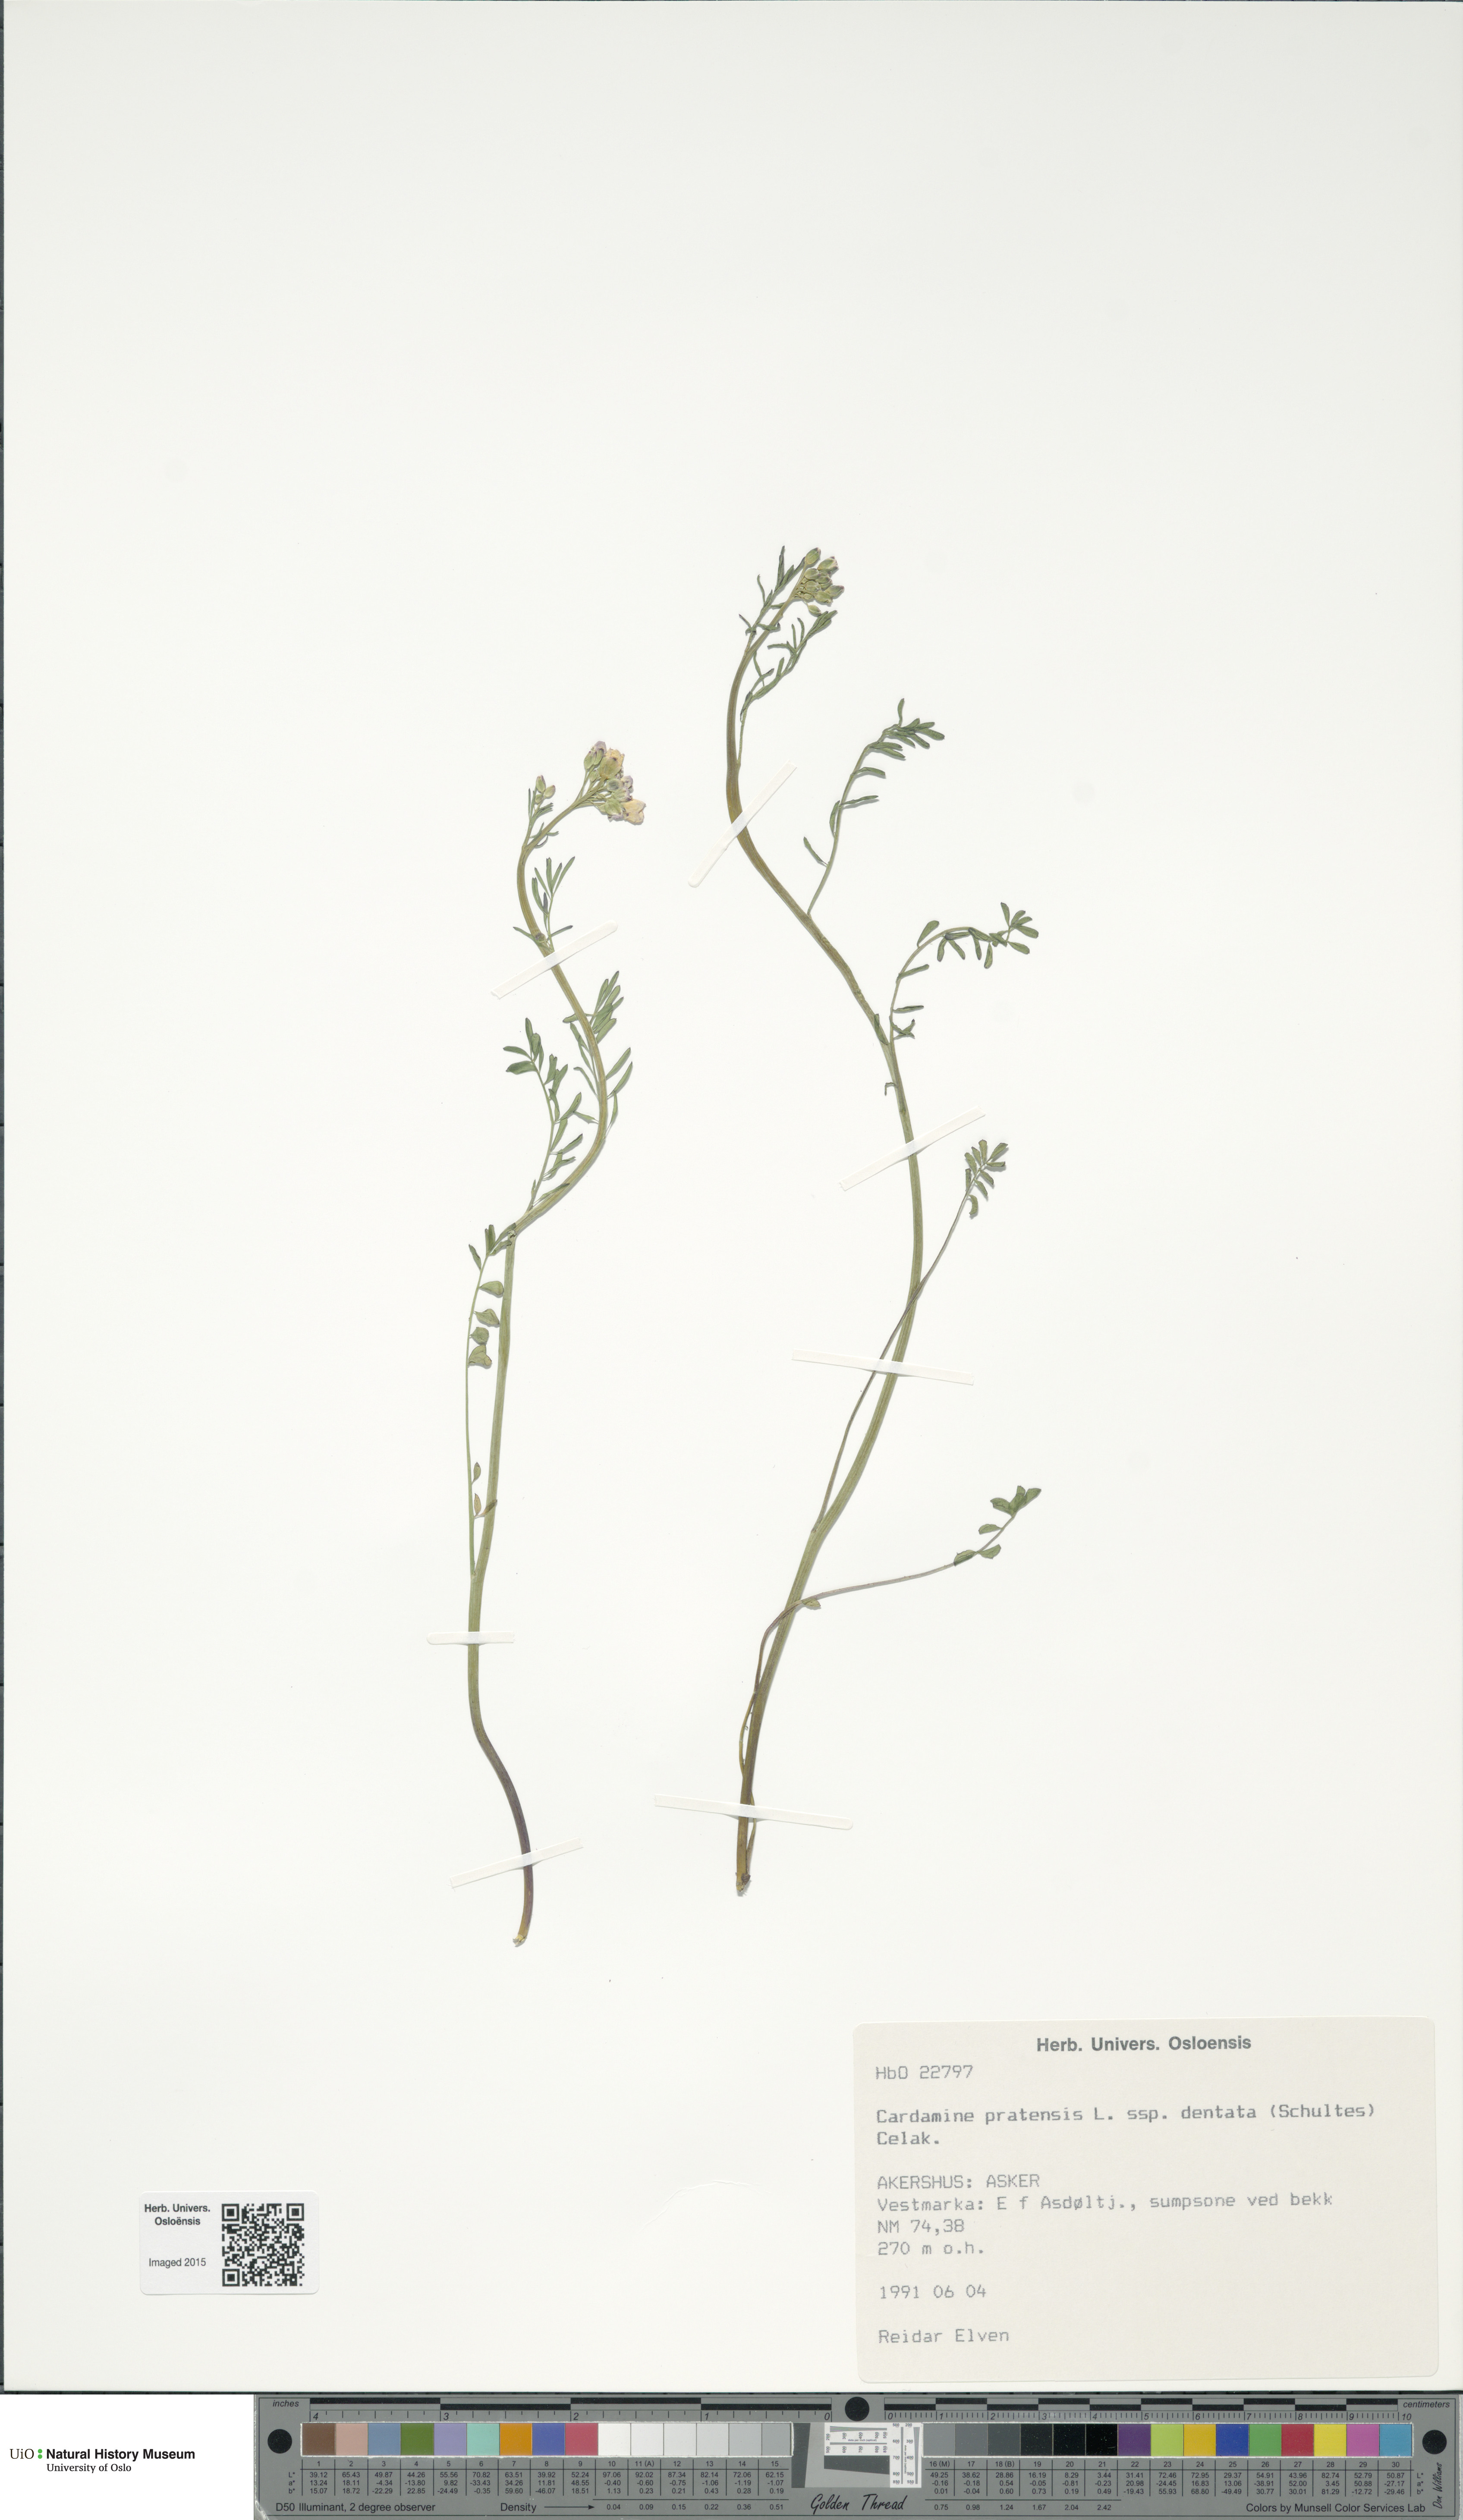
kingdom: Plantae
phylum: Tracheophyta
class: Magnoliopsida
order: Brassicales
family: Brassicaceae
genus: Cardamine
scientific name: Cardamine dentata
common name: Toothed bittercress
